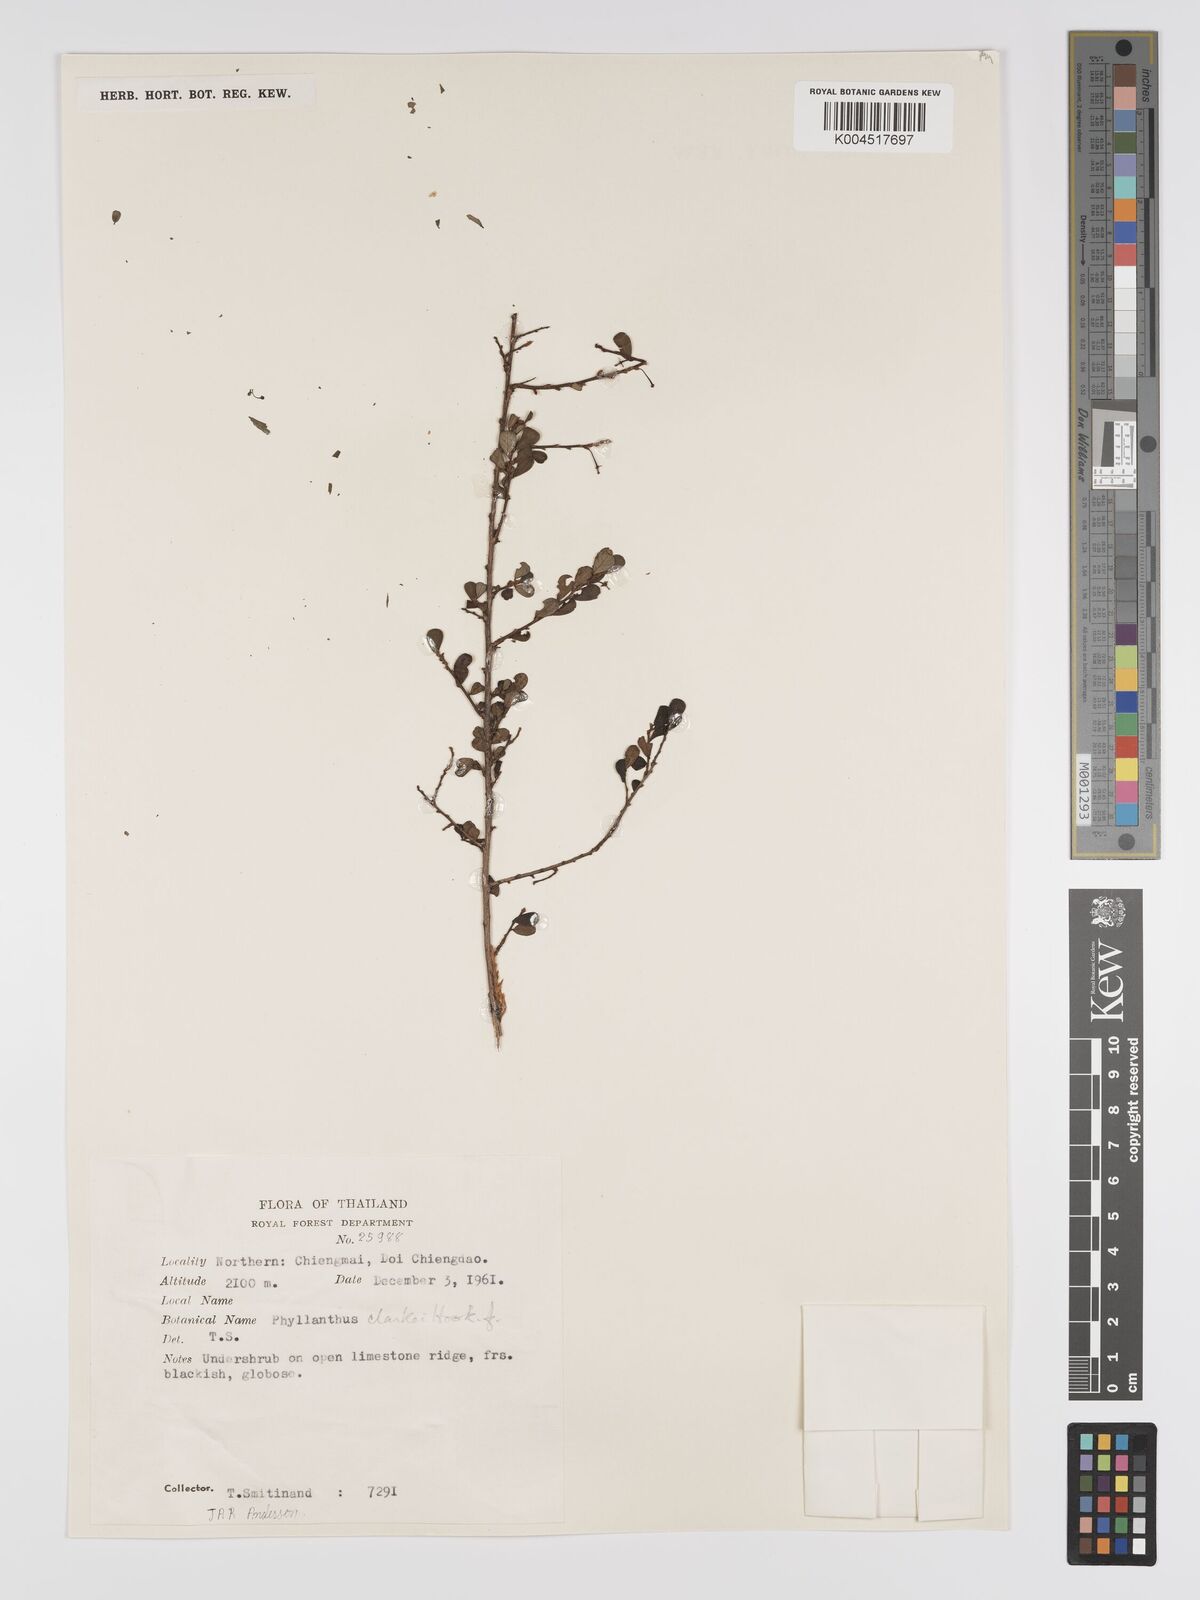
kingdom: Plantae
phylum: Tracheophyta
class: Magnoliopsida
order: Malpighiales
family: Phyllanthaceae
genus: Phyllanthus
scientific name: Phyllanthus clarkei
